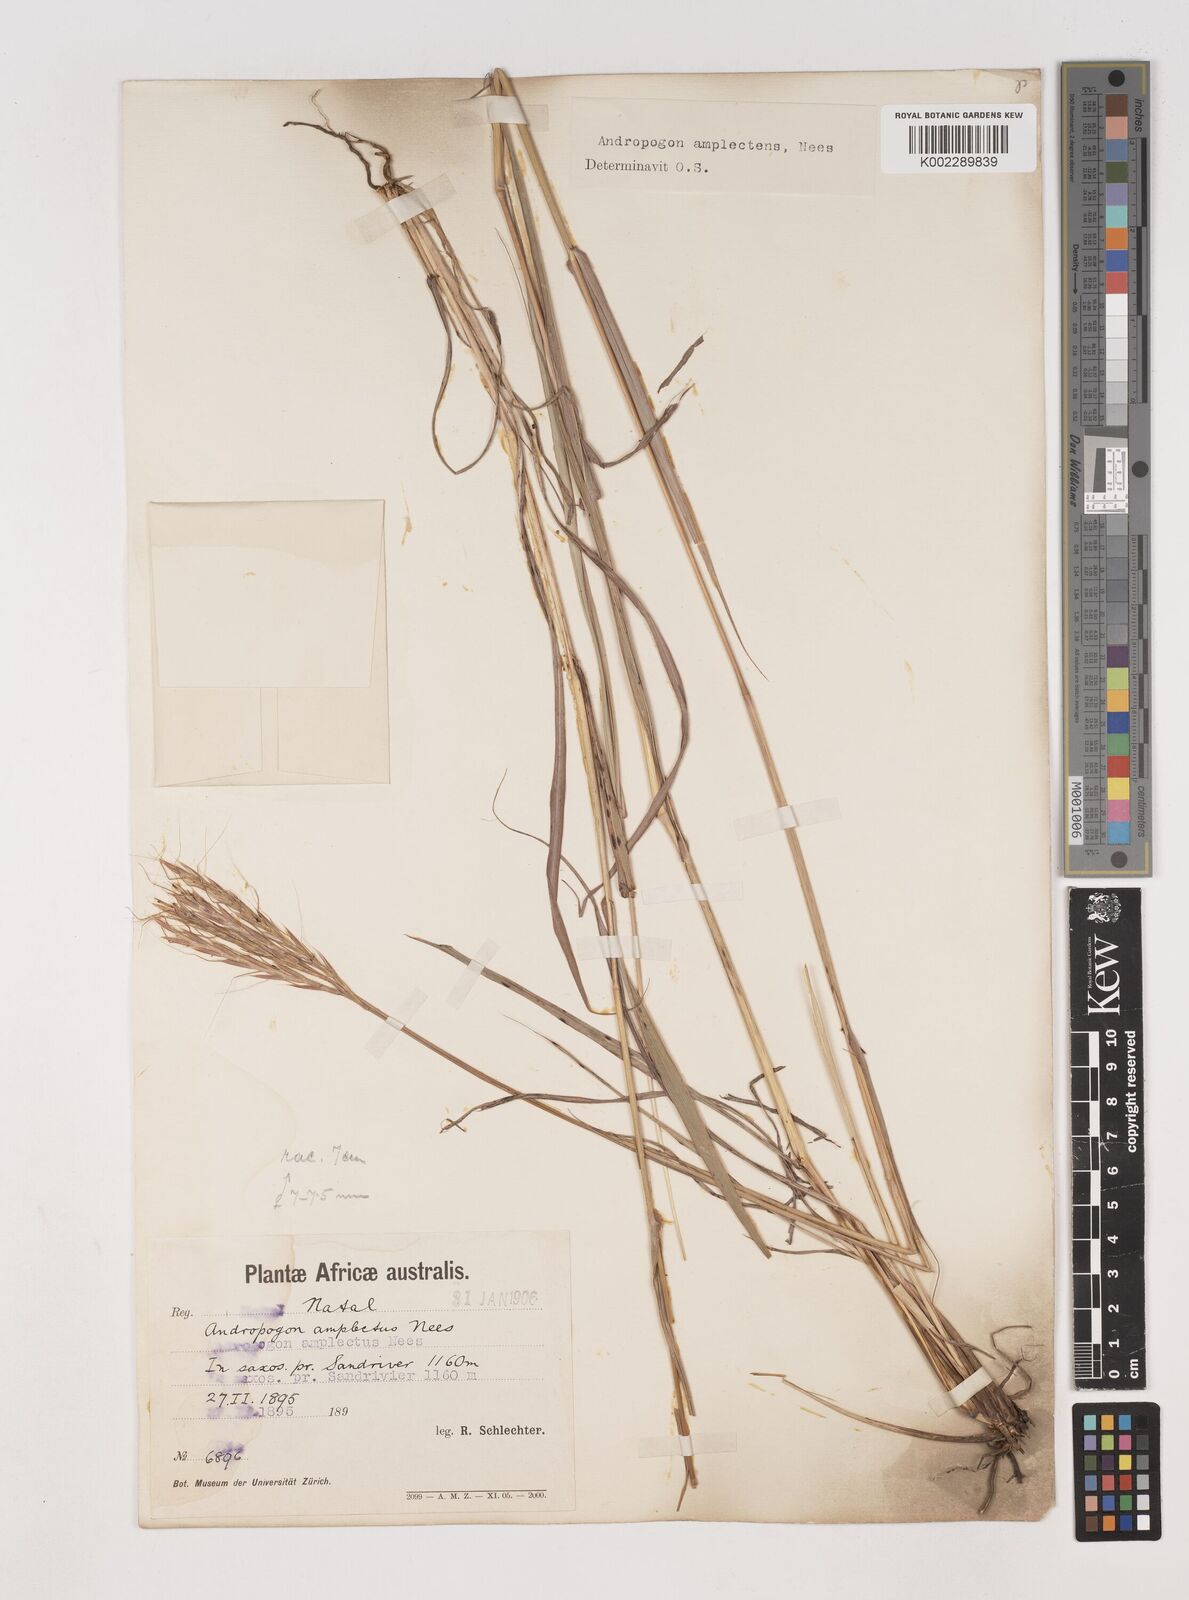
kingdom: Plantae
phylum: Tracheophyta
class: Liliopsida
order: Poales
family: Poaceae
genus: Diheteropogon
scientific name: Diheteropogon amplectens
